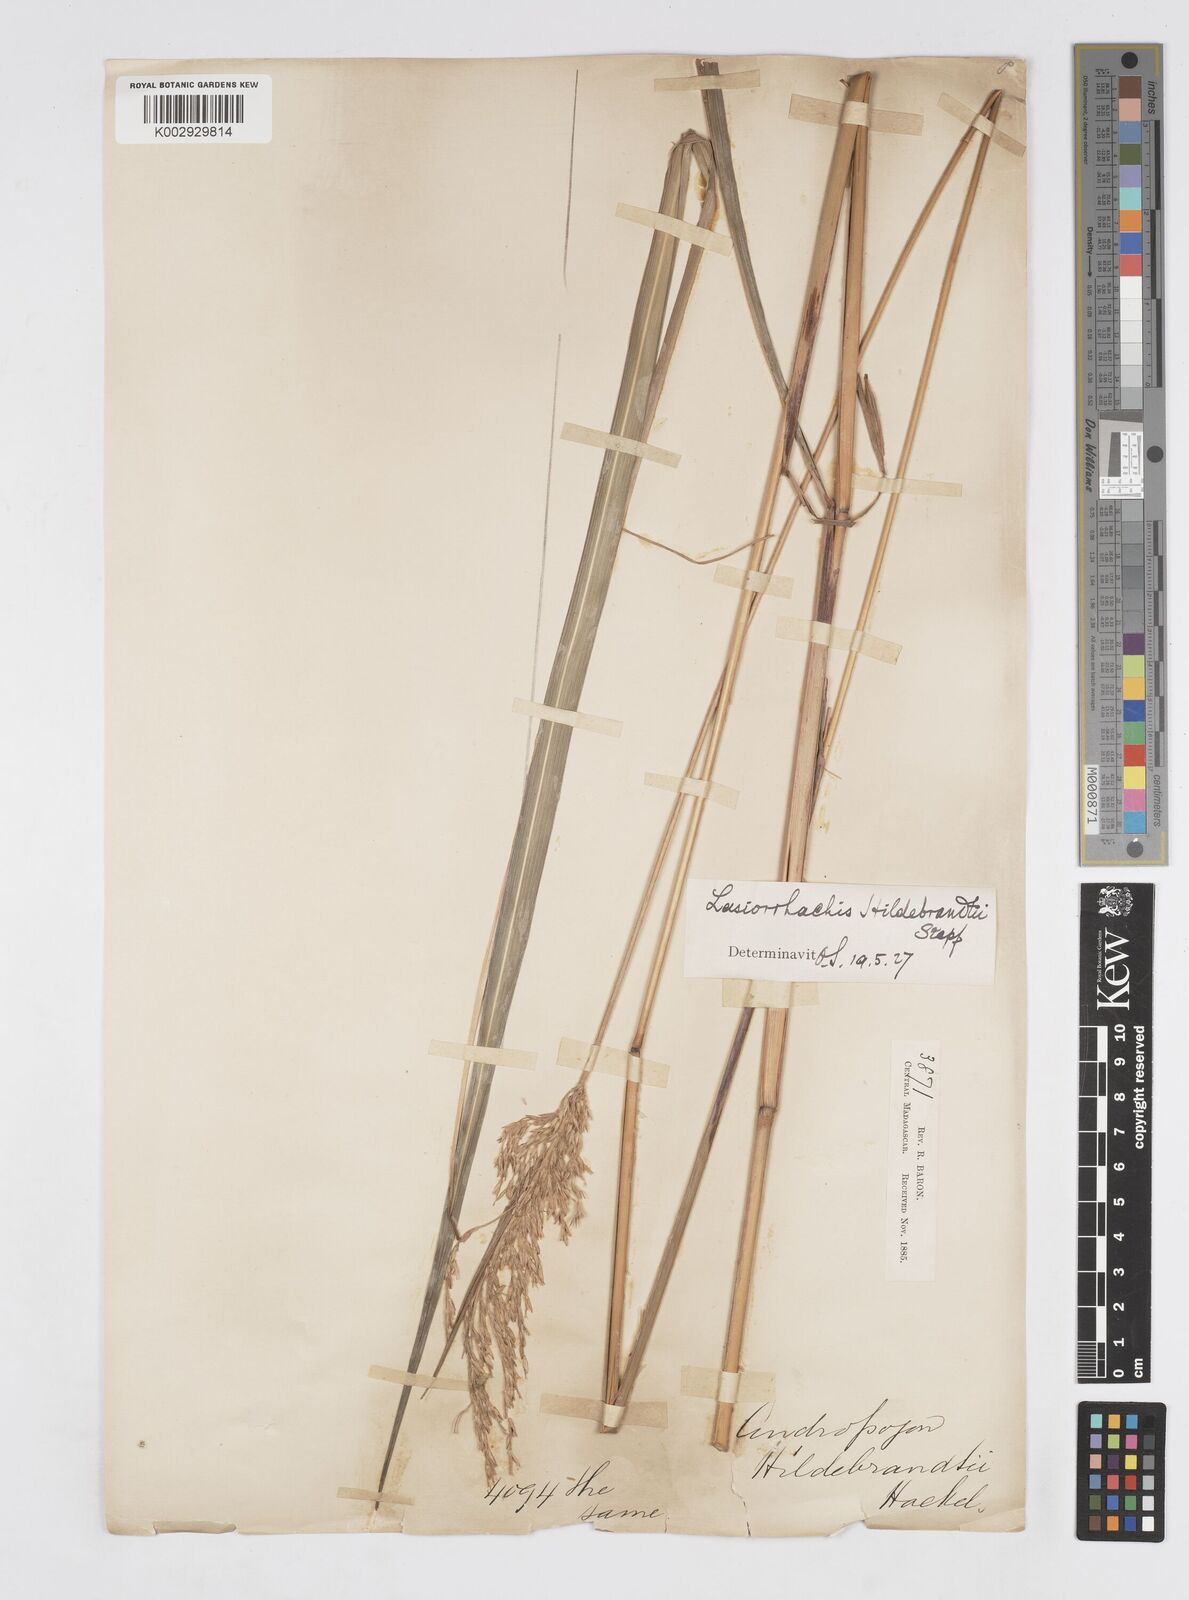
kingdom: Plantae
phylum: Tracheophyta
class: Liliopsida
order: Poales
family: Poaceae
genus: Lasiorhachis
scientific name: Lasiorhachis hildebrandtii
